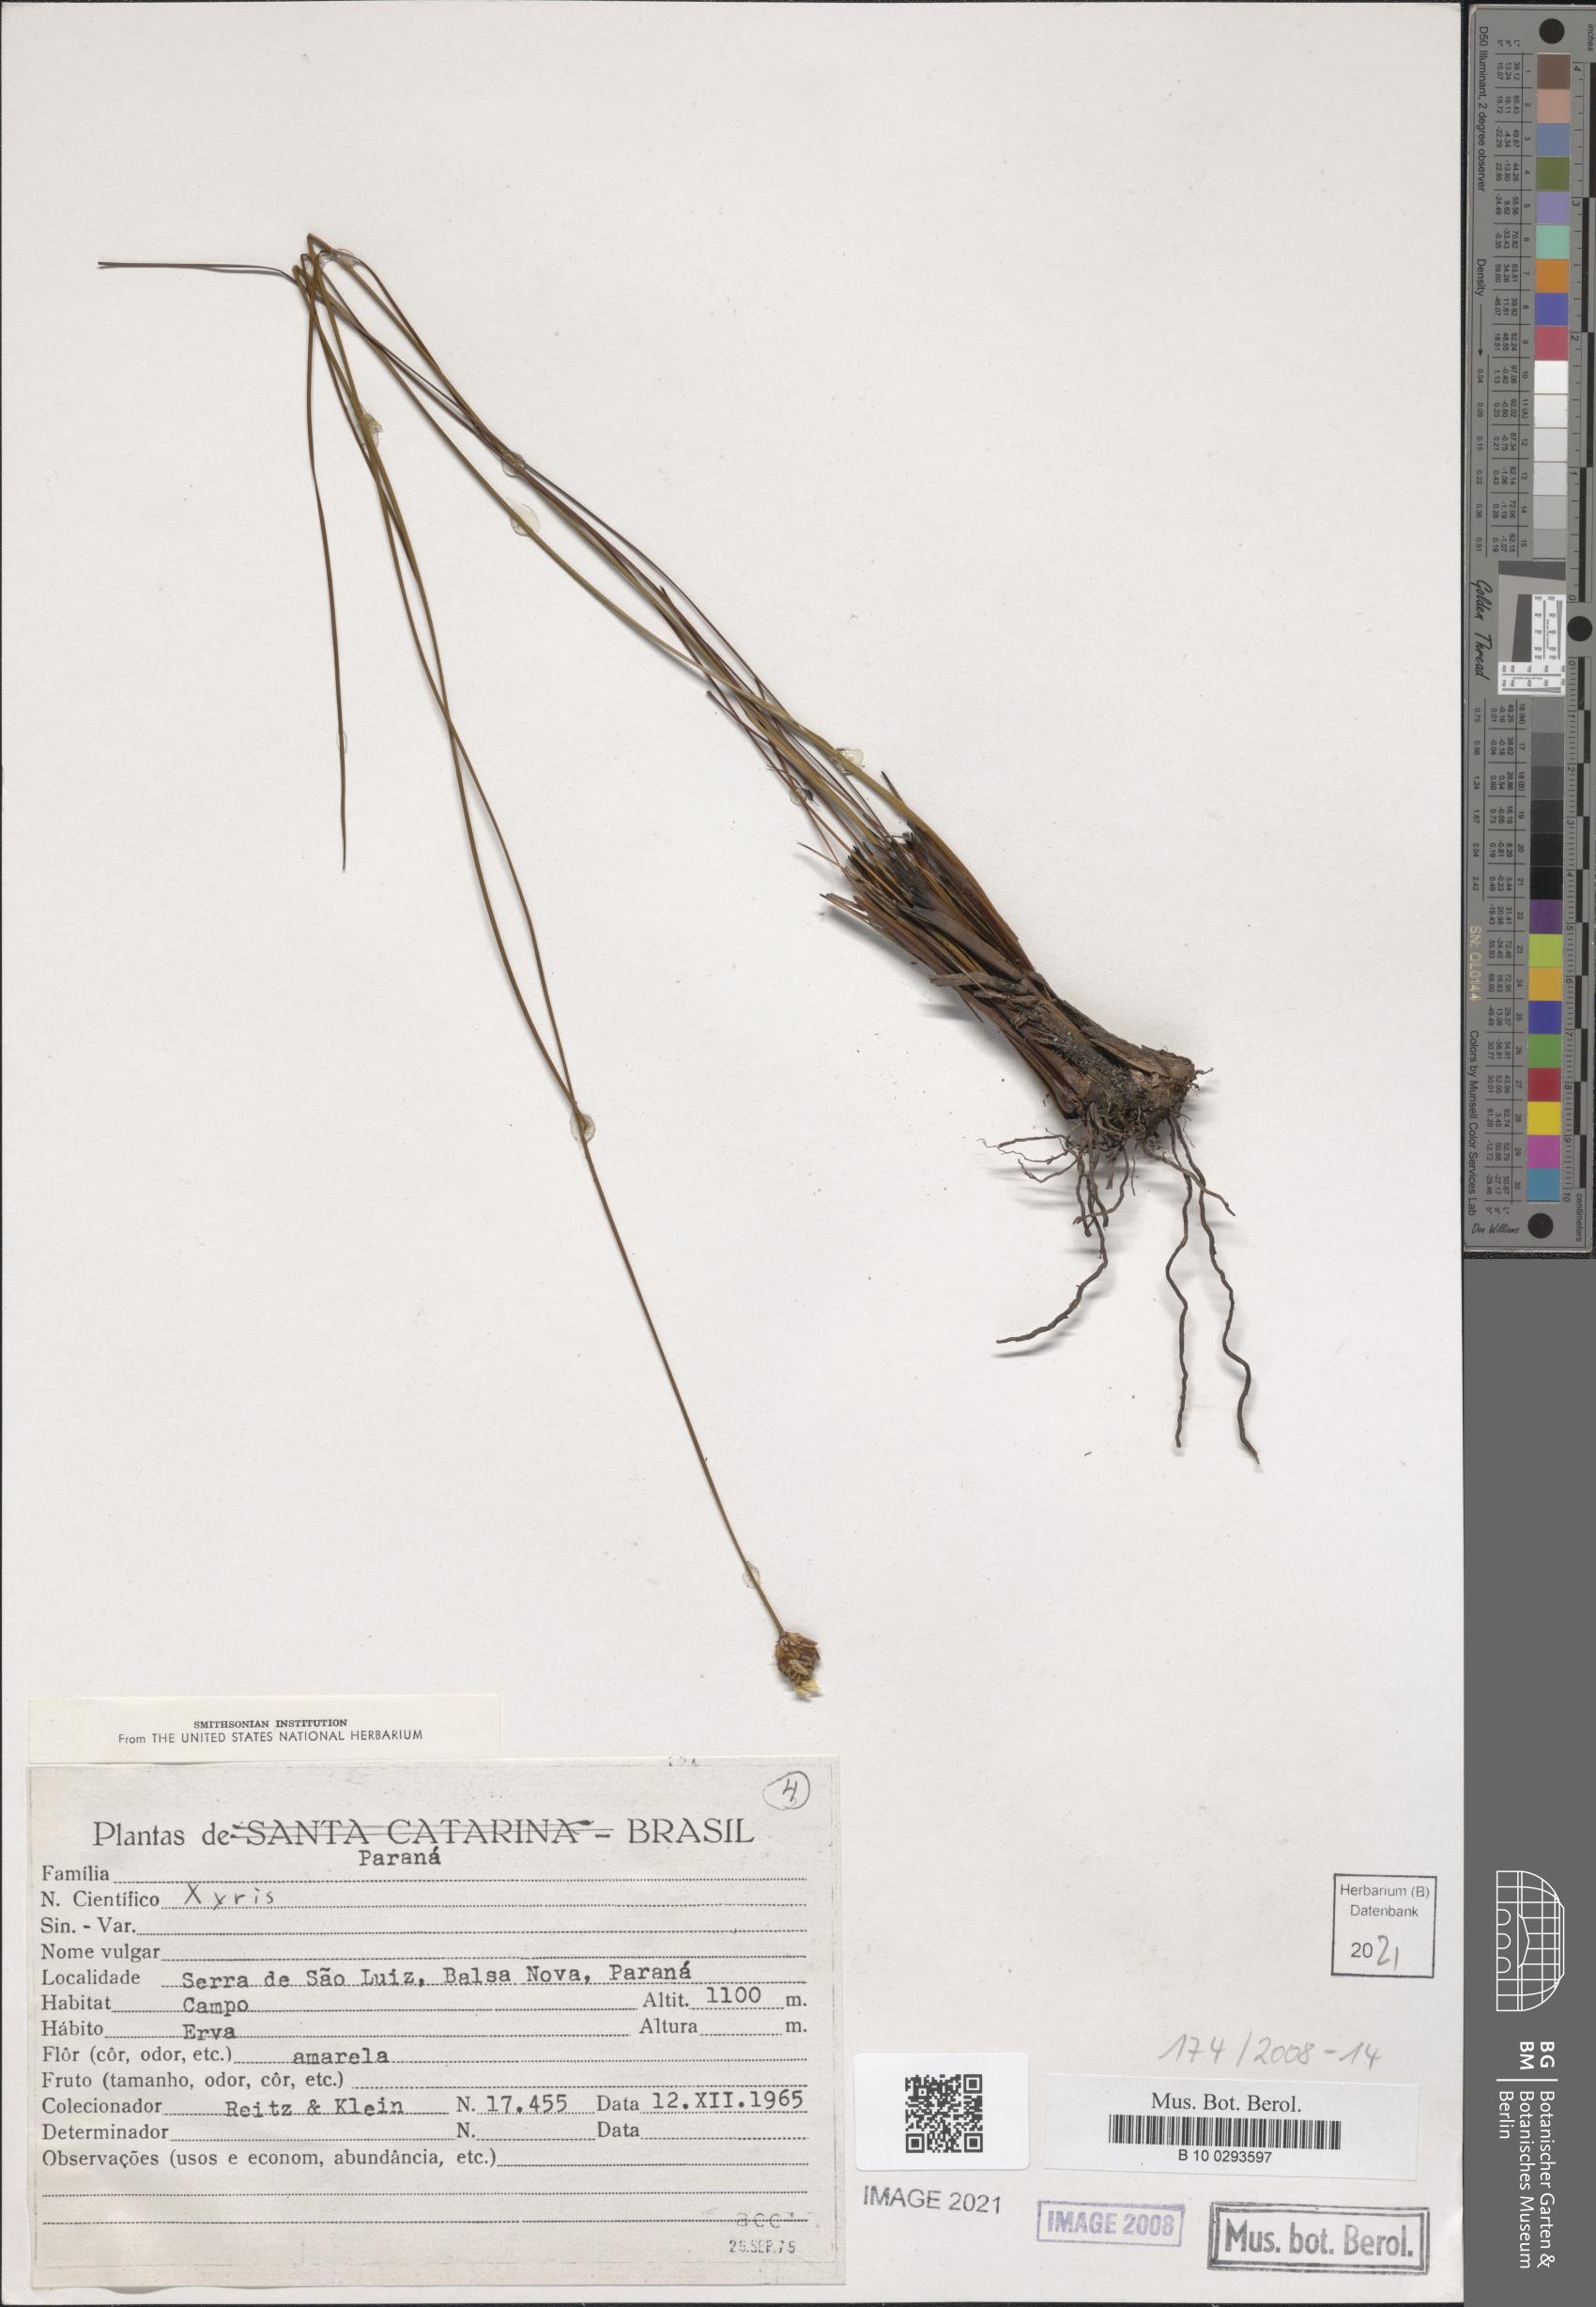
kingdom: Plantae
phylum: Tracheophyta
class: Liliopsida
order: Poales
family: Xyridaceae
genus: Xyris
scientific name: Xyris
